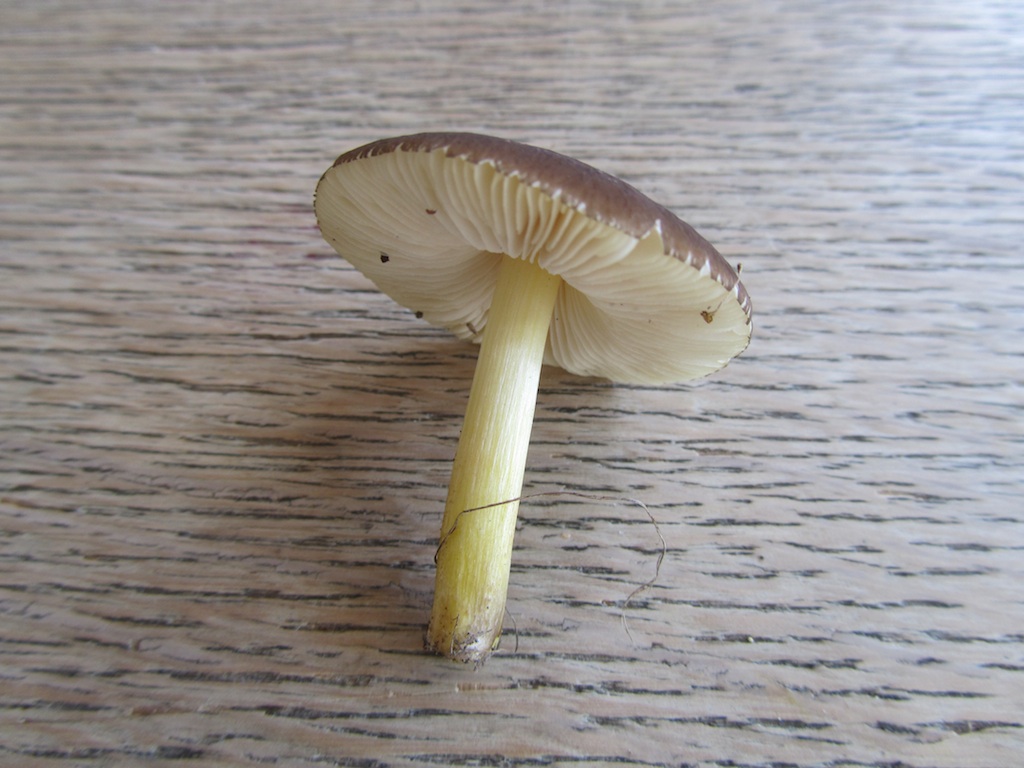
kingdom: Fungi
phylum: Basidiomycota
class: Agaricomycetes
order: Agaricales
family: Pluteaceae
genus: Pluteus
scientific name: Pluteus romellii
